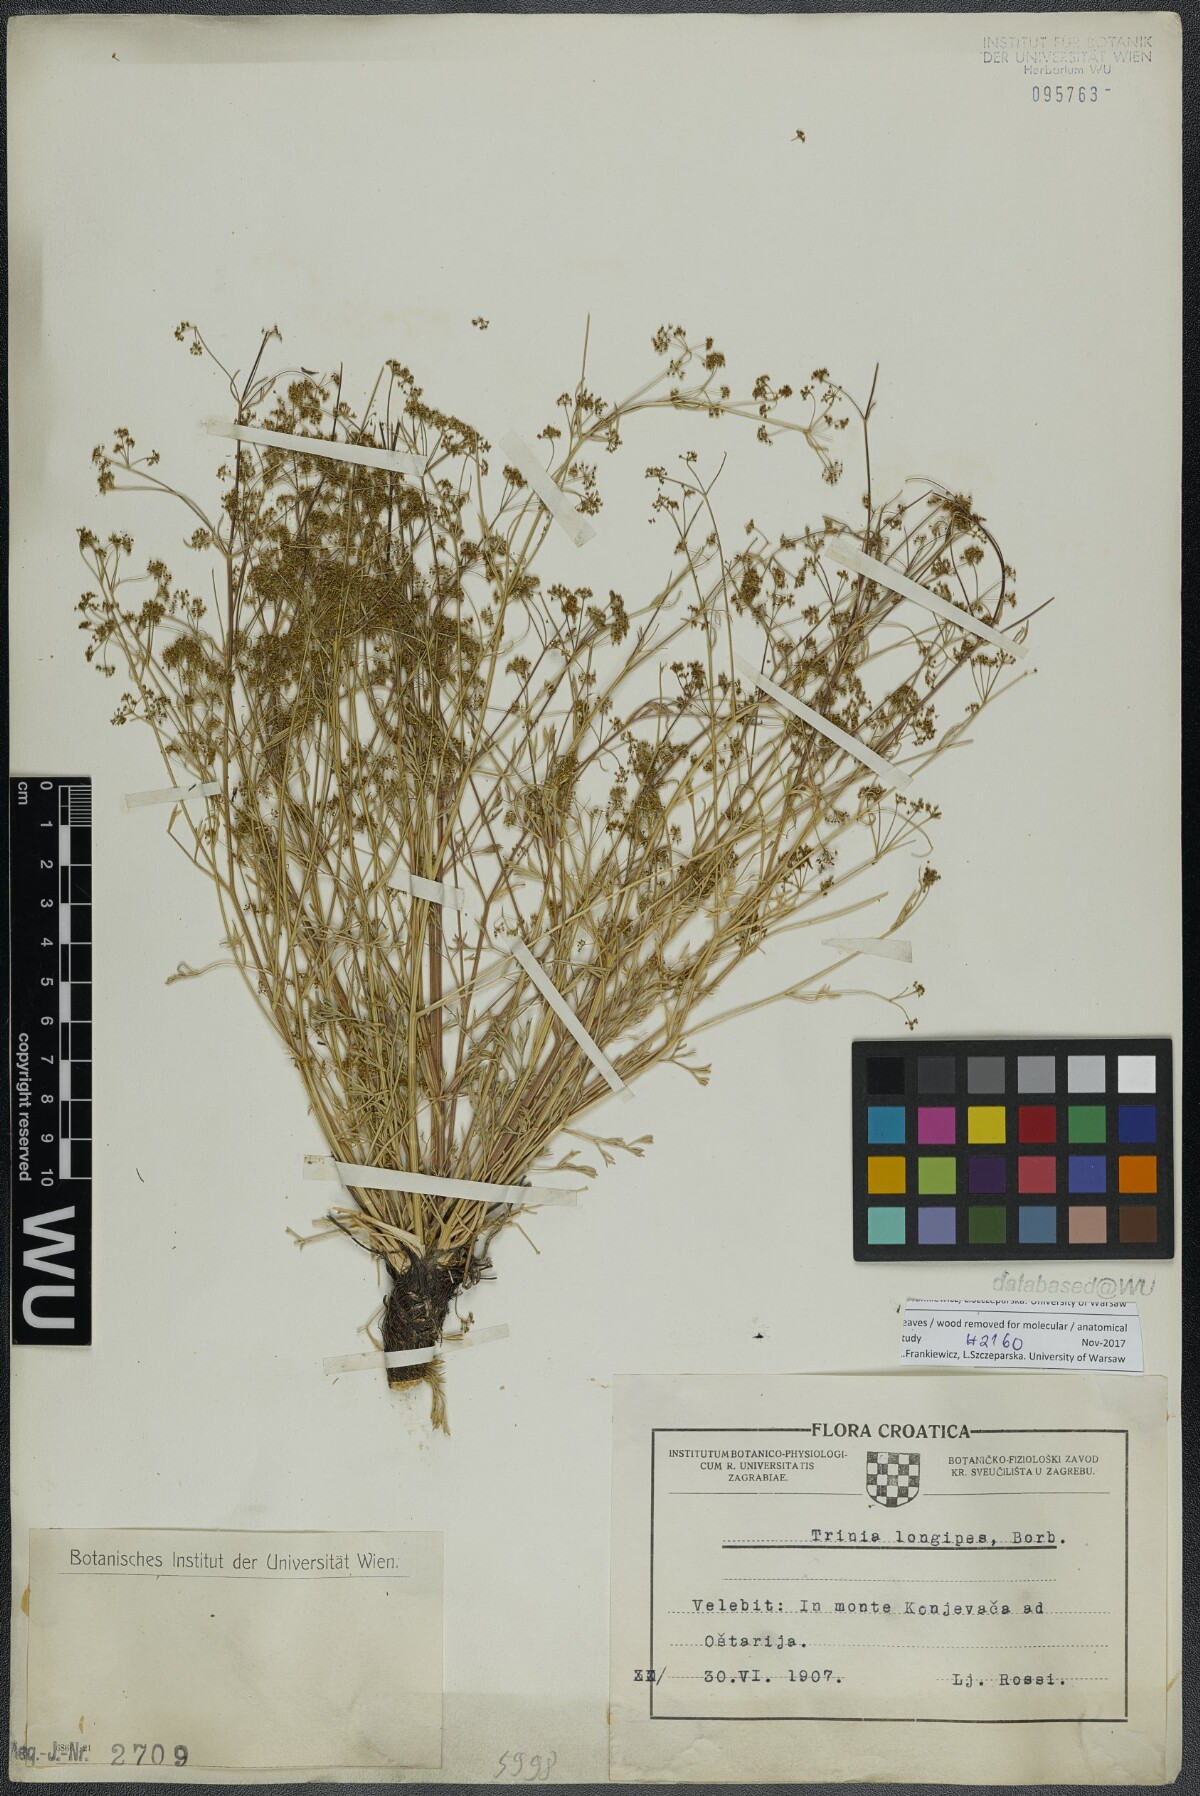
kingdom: Plantae
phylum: Tracheophyta
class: Magnoliopsida
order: Apiales
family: Apiaceae
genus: Trinia
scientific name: Trinia kitaibelii
